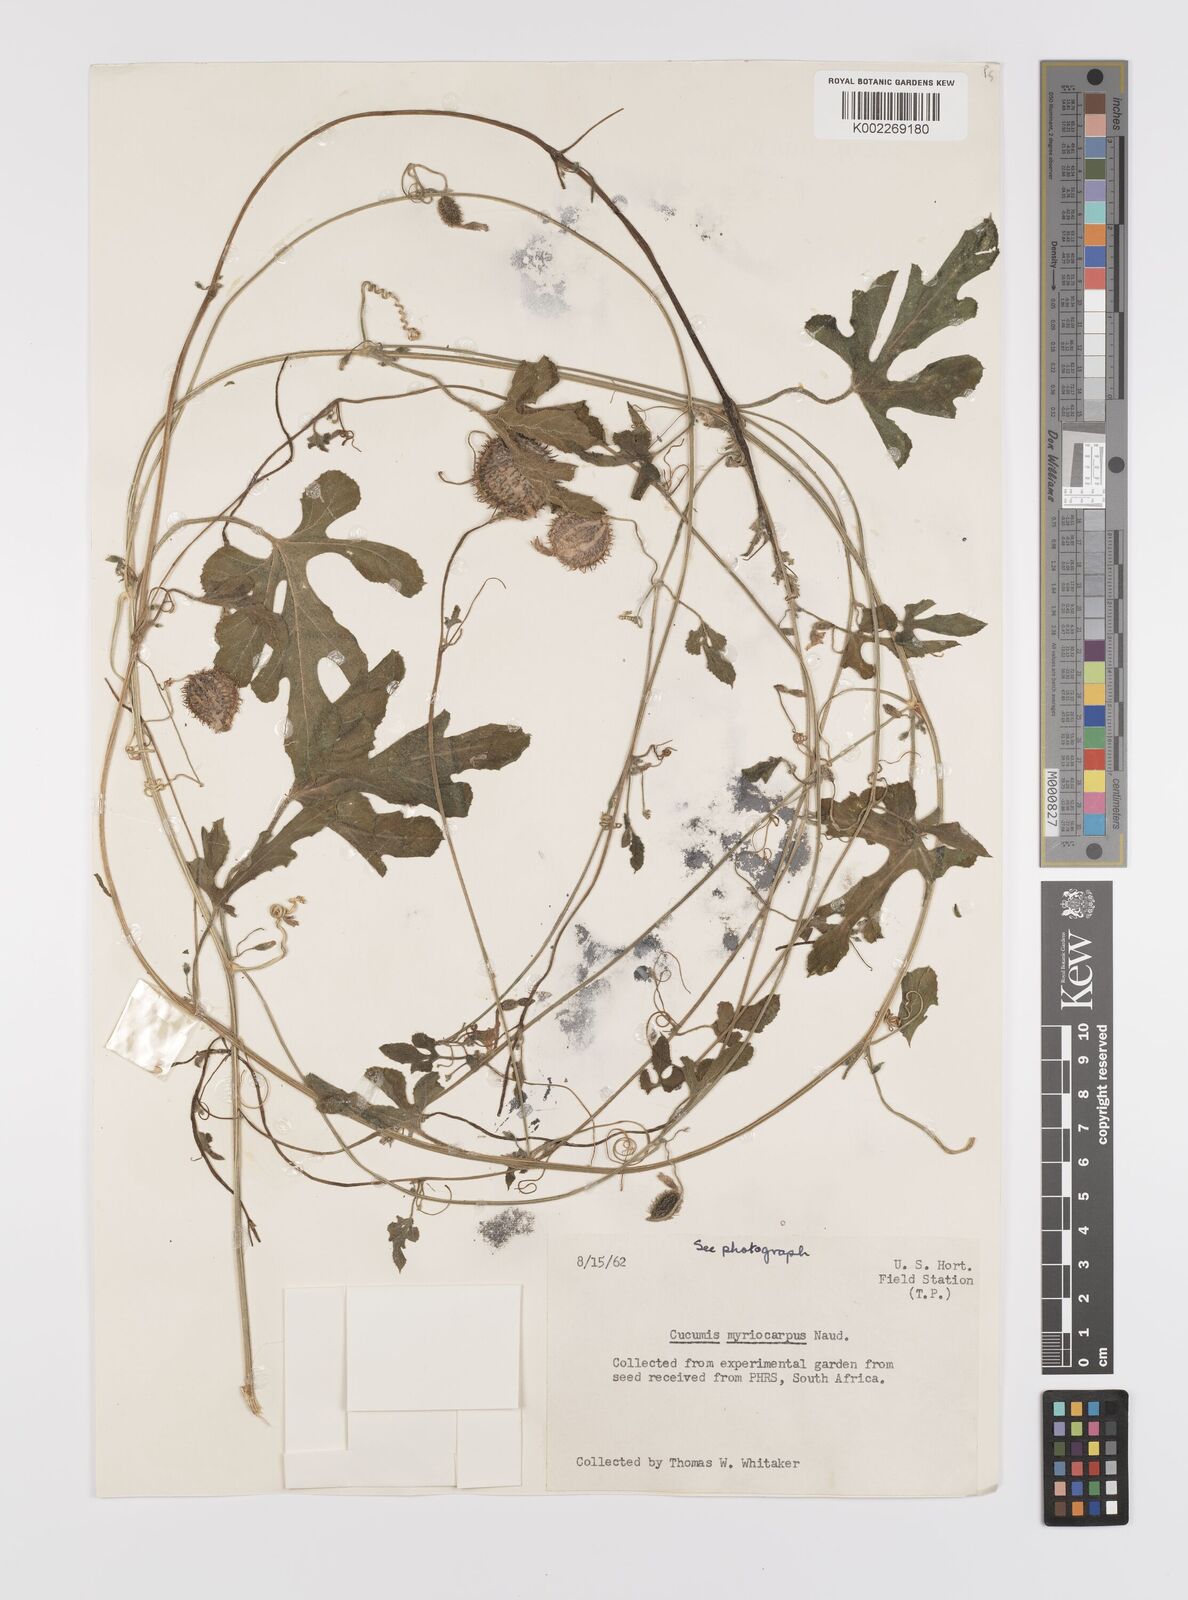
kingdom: Plantae
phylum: Tracheophyta
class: Magnoliopsida
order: Cucurbitales
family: Cucurbitaceae
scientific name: Cucurbitaceae
